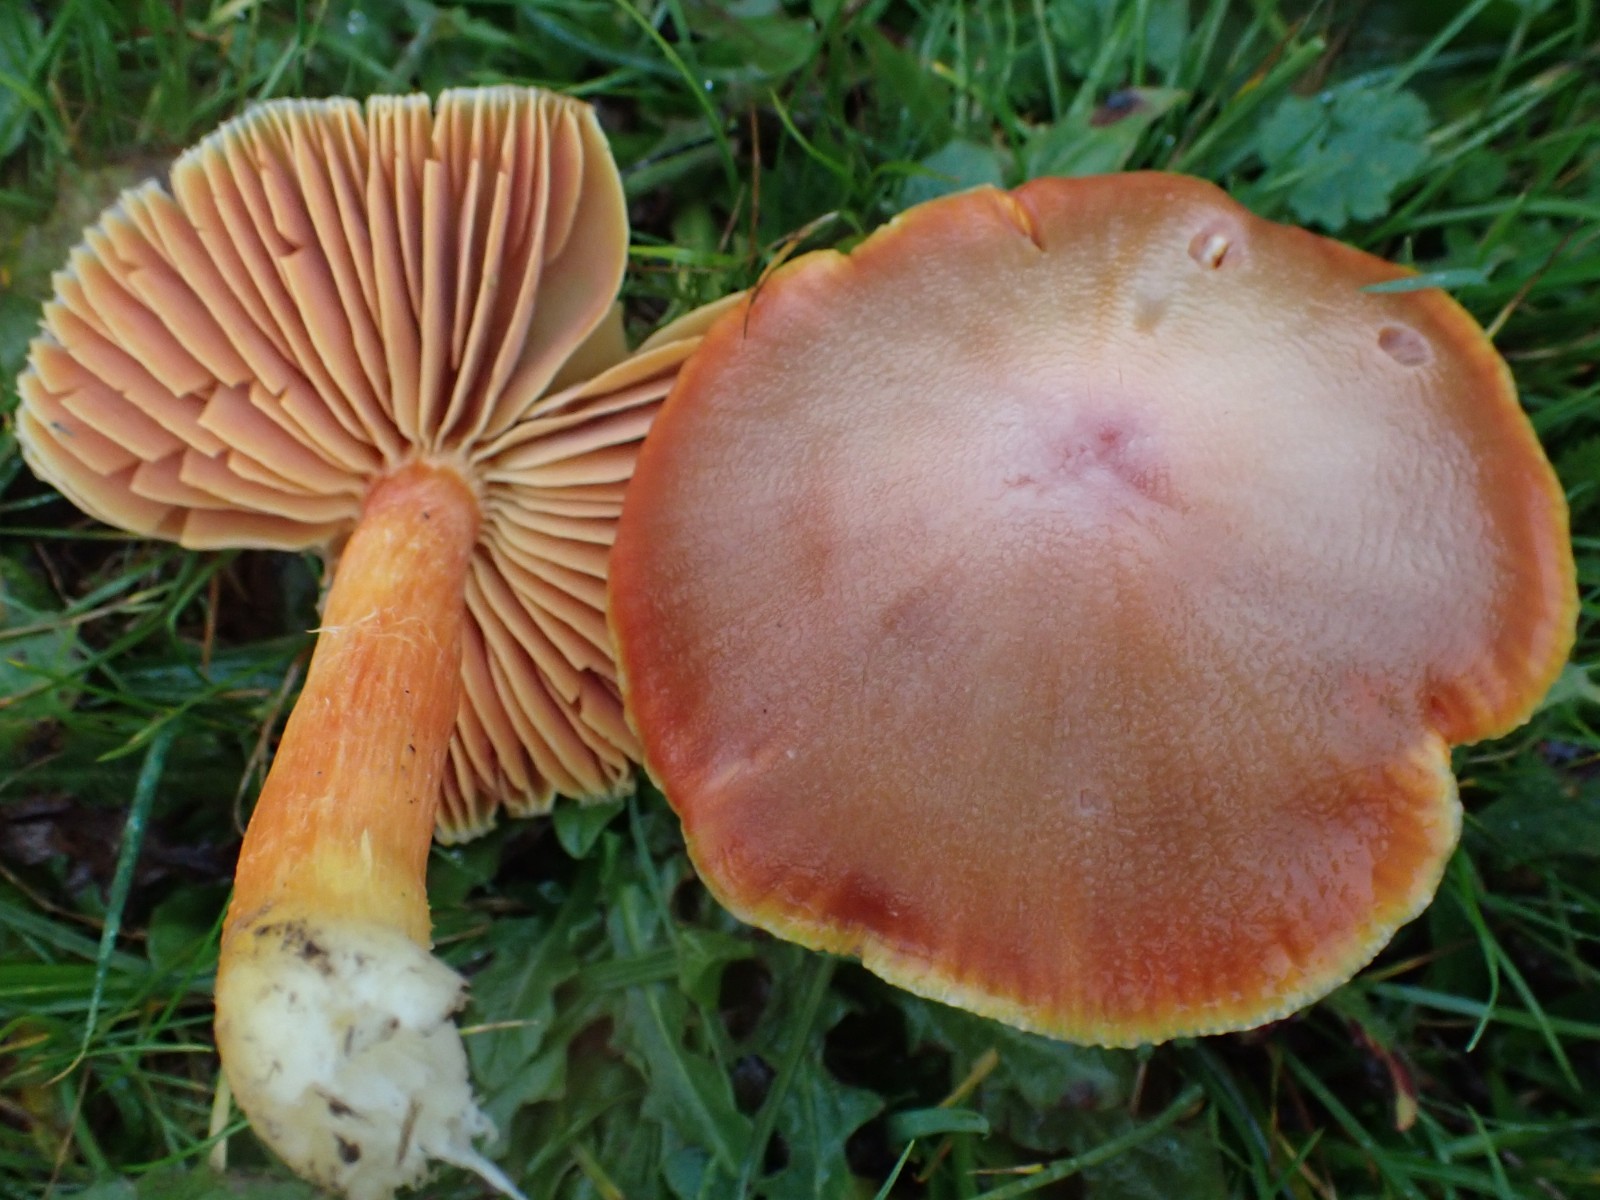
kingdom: Fungi
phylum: Basidiomycota
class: Agaricomycetes
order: Agaricales
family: Hygrophoraceae
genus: Hygrocybe
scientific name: Hygrocybe punicea
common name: skarlagen-vokshat
